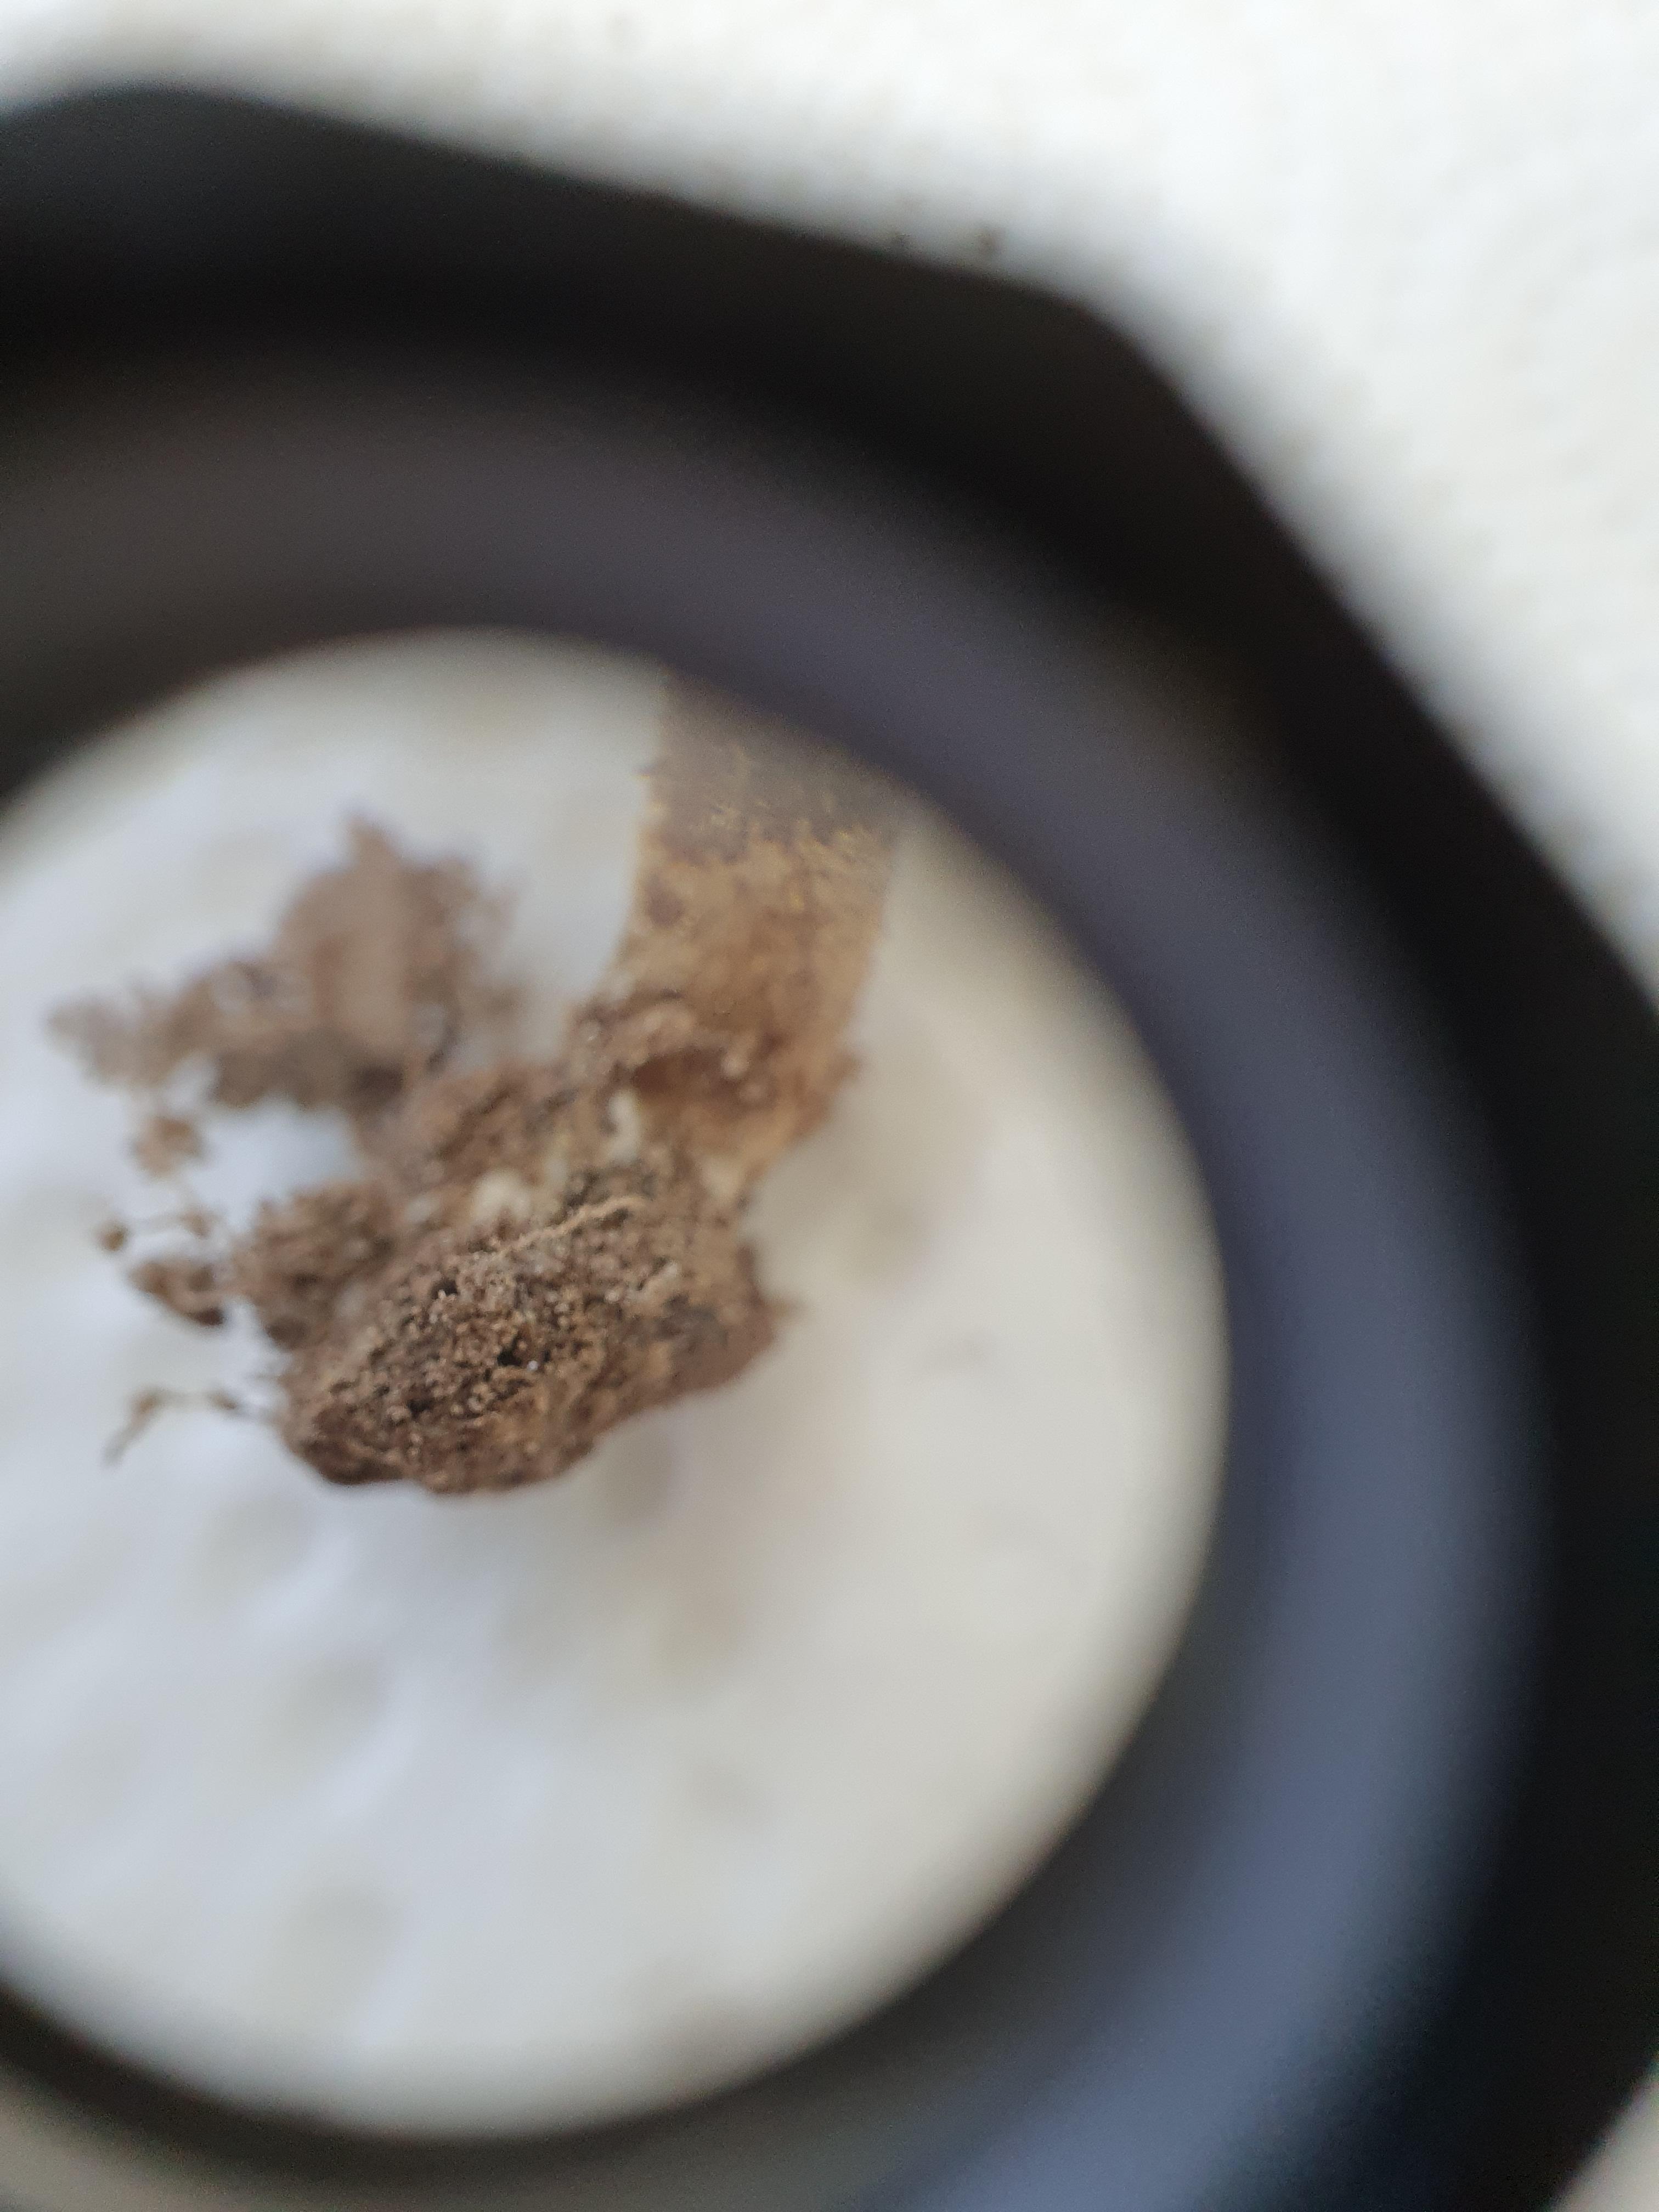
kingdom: Fungi
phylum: Basidiomycota
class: Agaricomycetes
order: Agaricales
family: Inocybaceae
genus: Inocybe
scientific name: Inocybe lacera
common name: laset trævlhat
